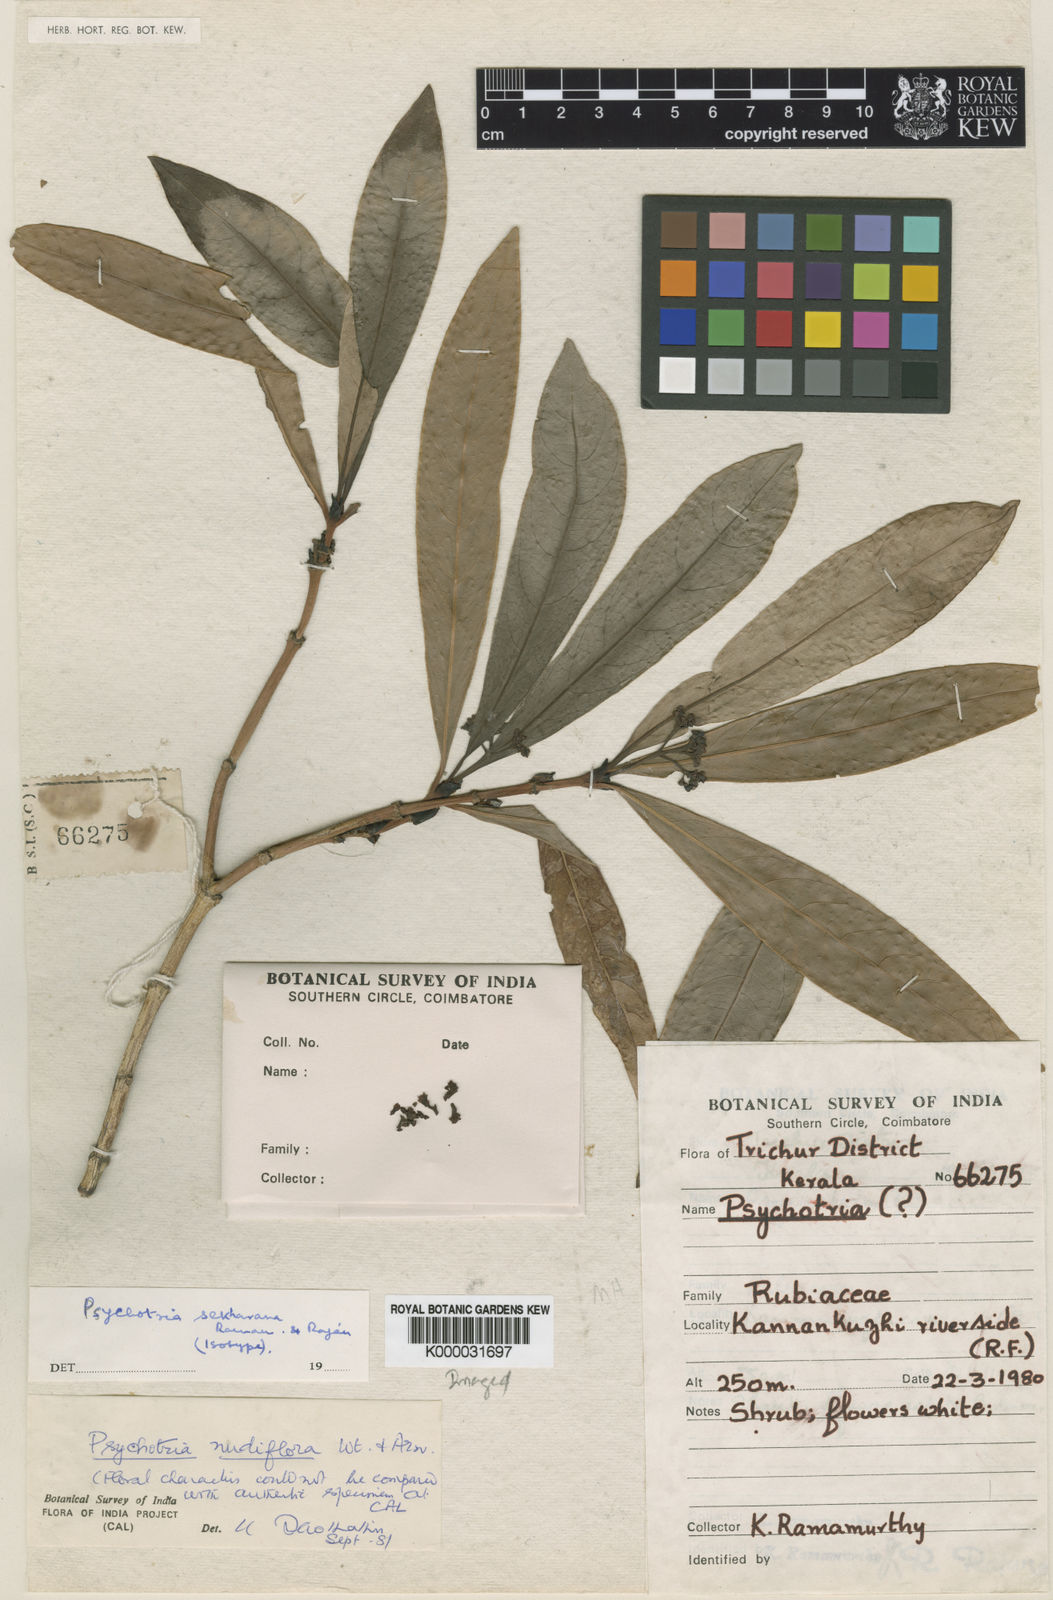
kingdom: Plantae
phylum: Tracheophyta
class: Magnoliopsida
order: Gentianales
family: Rubiaceae
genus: Psychotria
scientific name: Psychotria nudiflora
